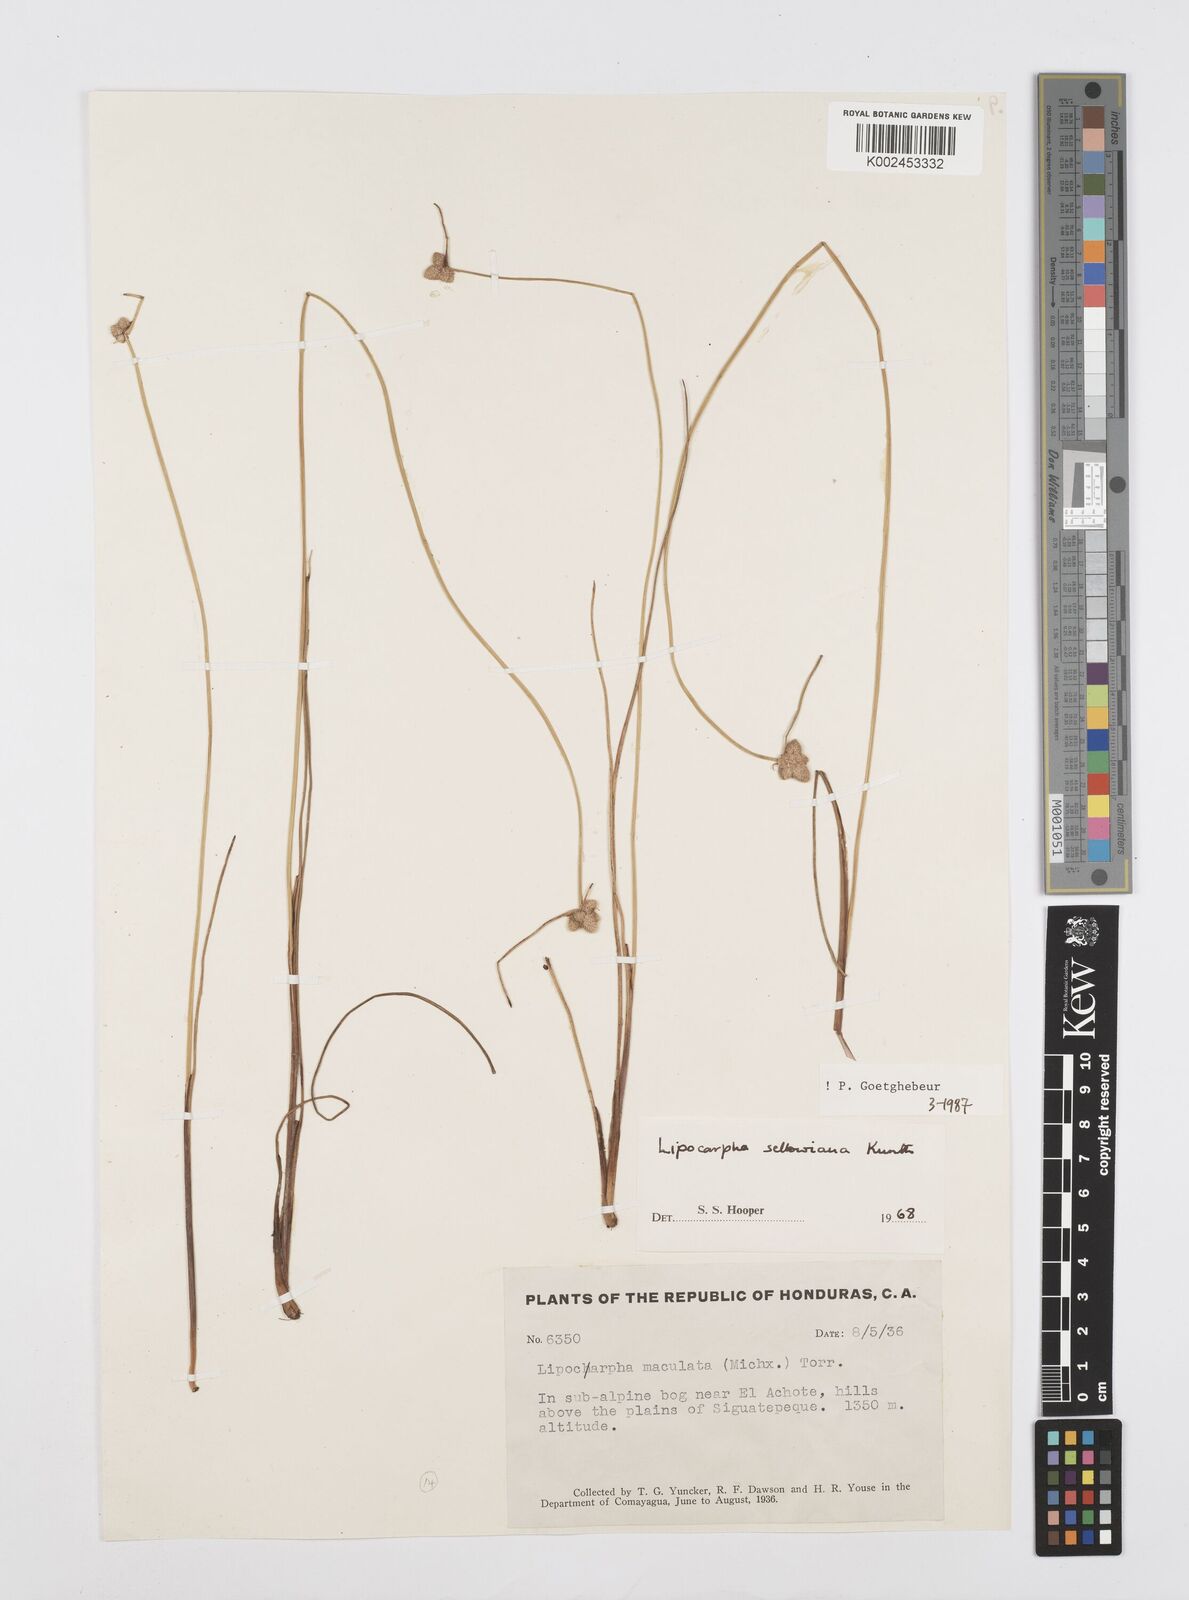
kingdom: Plantae
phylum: Tracheophyta
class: Liliopsida
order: Poales
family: Cyperaceae
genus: Cyperus
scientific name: Cyperus lanceolatus
